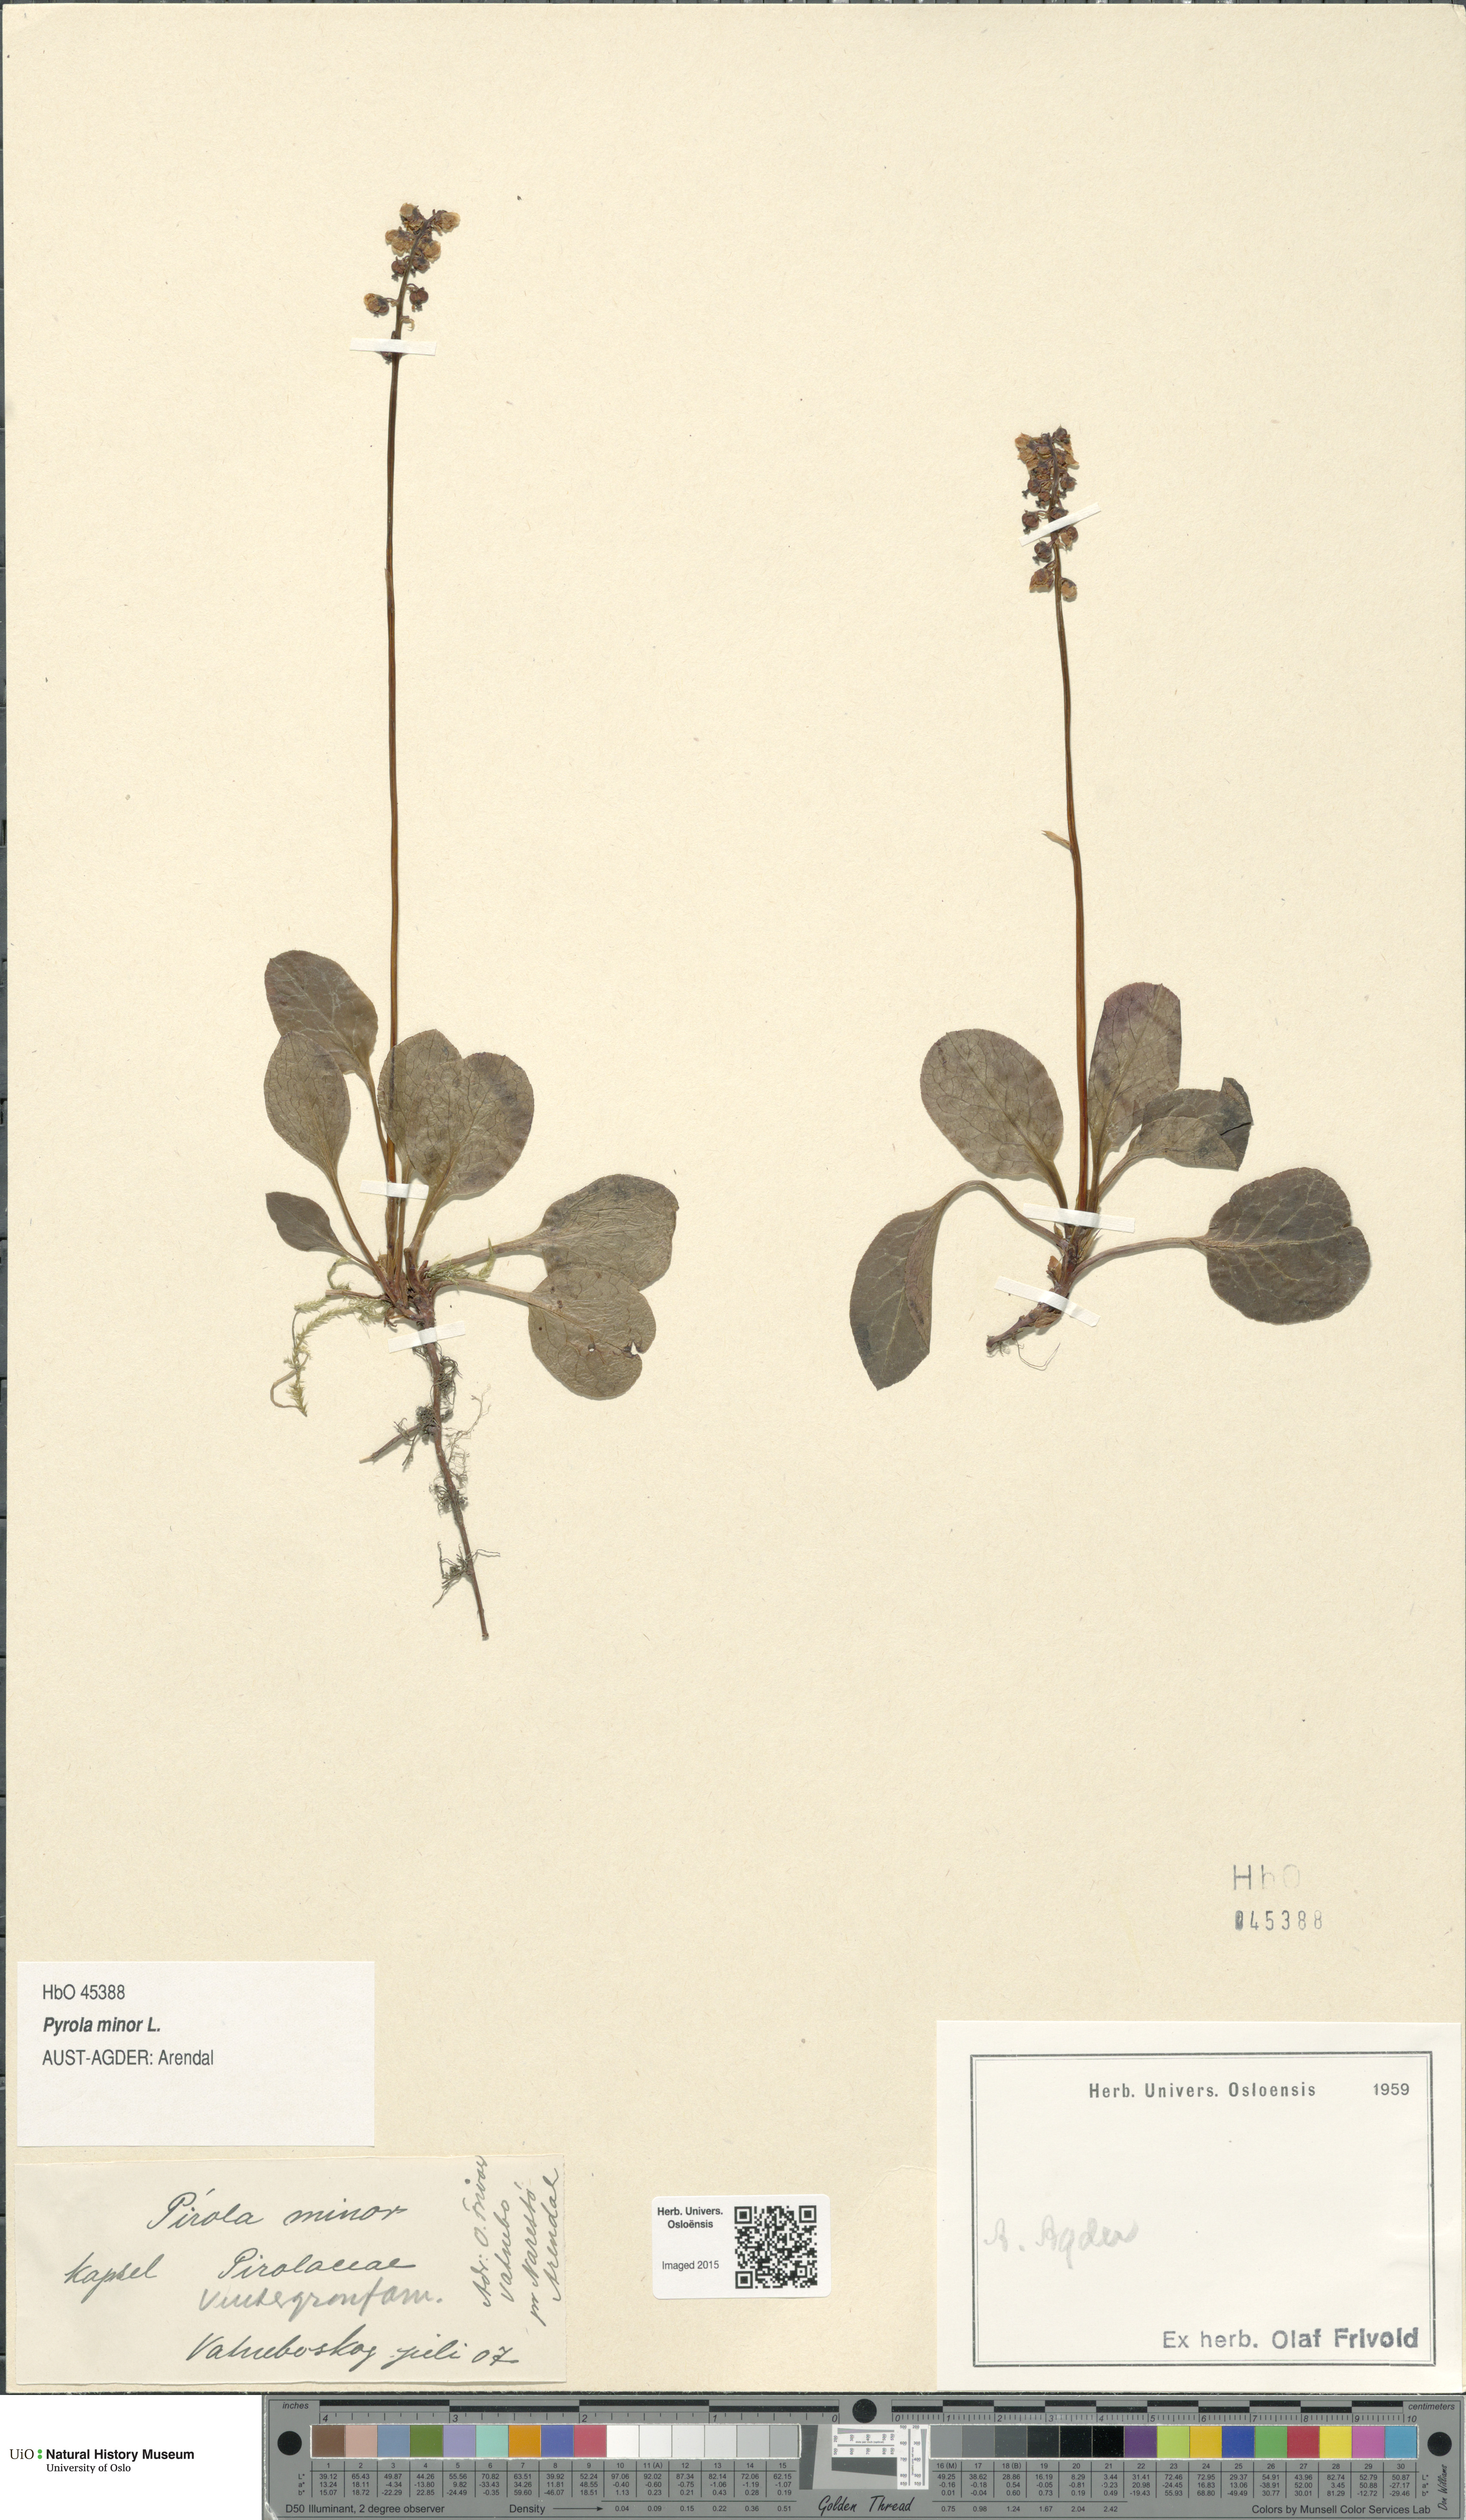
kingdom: Plantae
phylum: Tracheophyta
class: Magnoliopsida
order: Ericales
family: Ericaceae
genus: Pyrola
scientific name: Pyrola minor
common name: Common wintergreen
